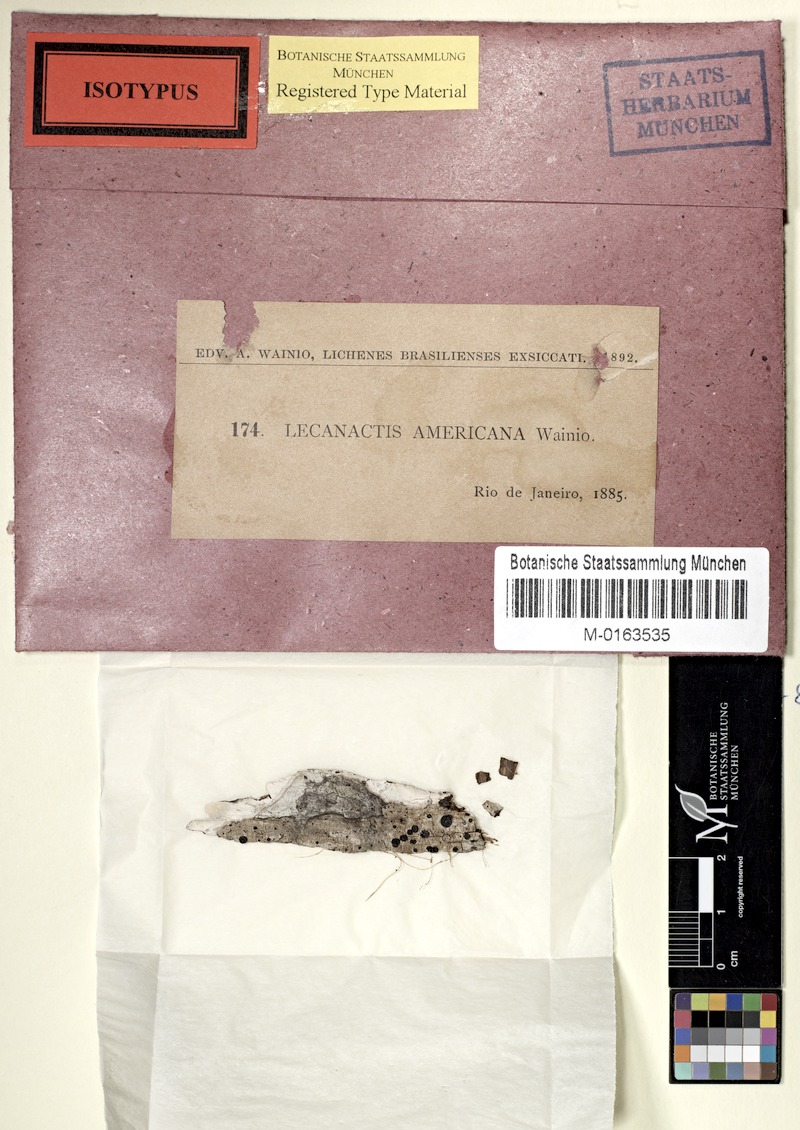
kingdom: Fungi
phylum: Ascomycota
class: Arthoniomycetes
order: Arthoniales
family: Opegraphaceae
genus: Cresponea
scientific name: Cresponea leprieurii
